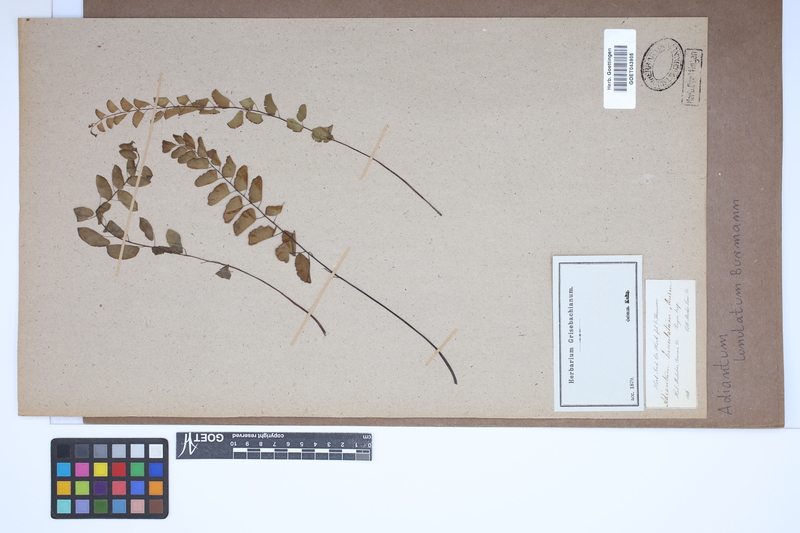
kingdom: Plantae
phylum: Tracheophyta
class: Polypodiopsida
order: Polypodiales
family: Pteridaceae
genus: Adiantum
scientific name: Adiantum philippense
